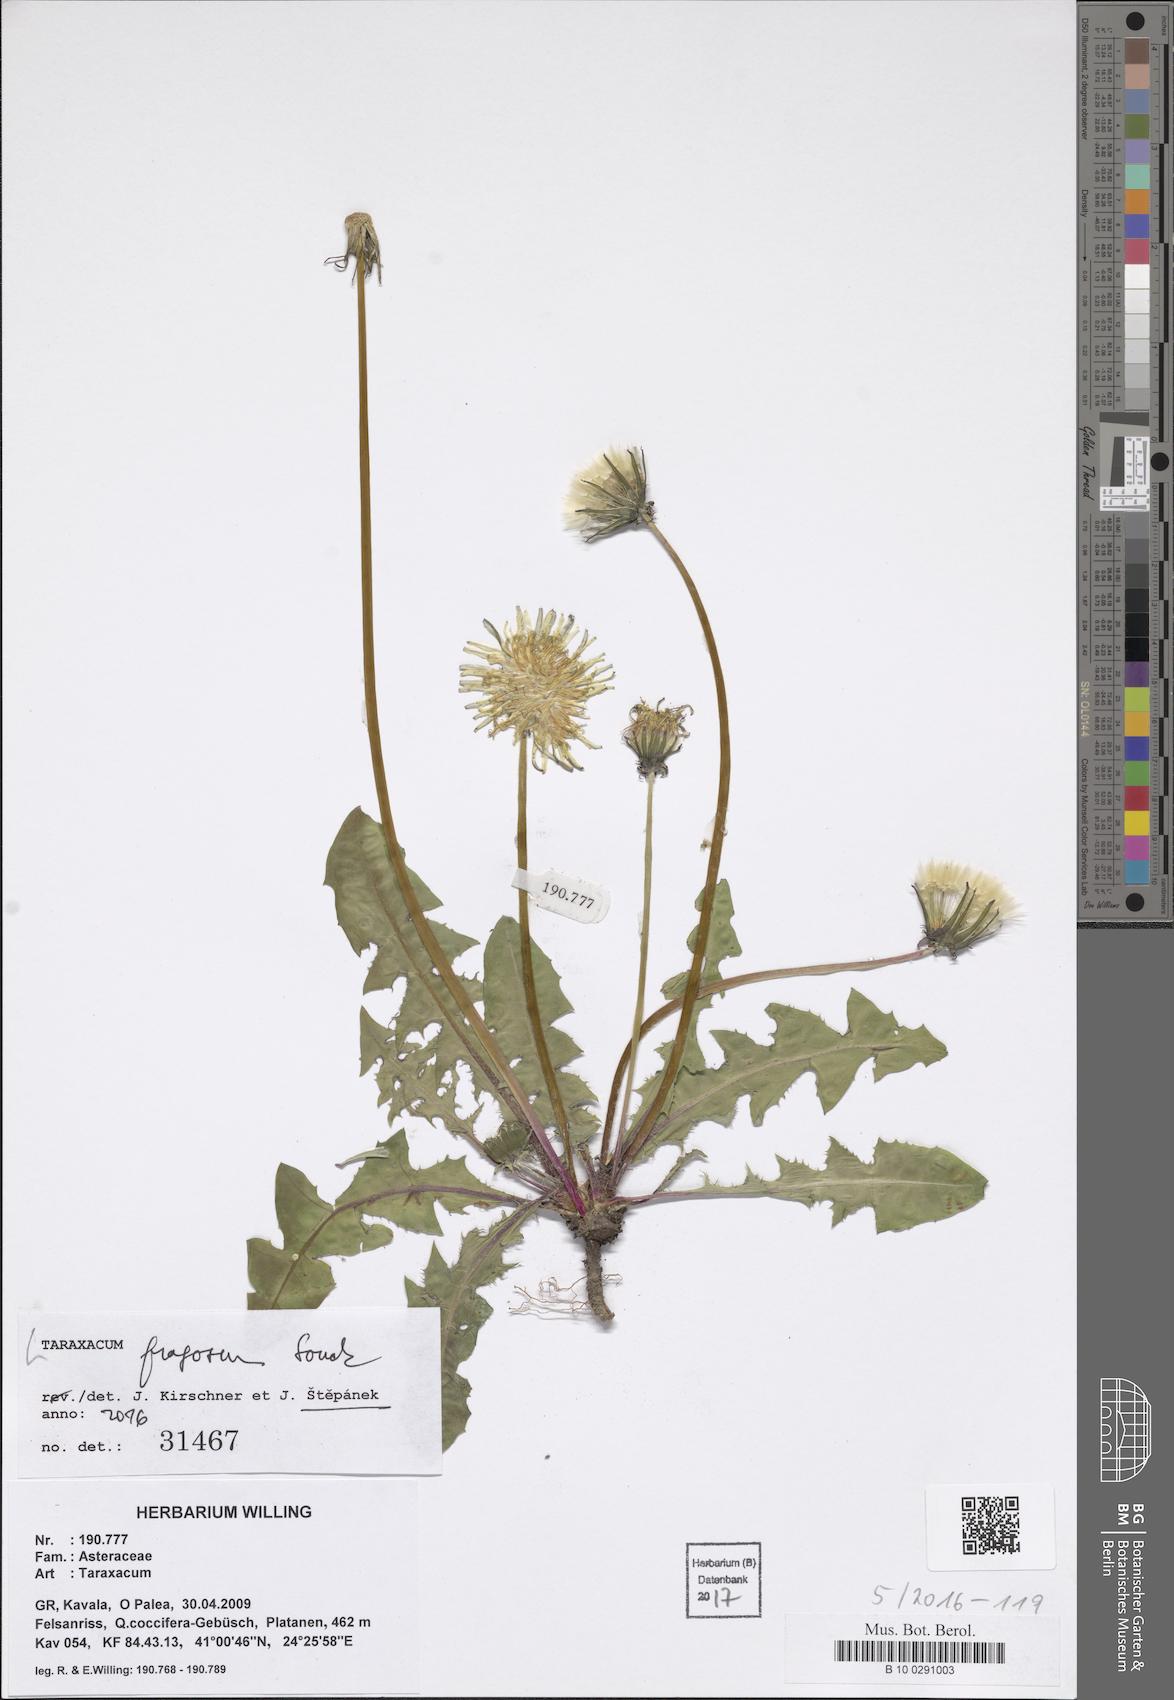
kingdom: Plantae
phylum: Tracheophyta
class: Magnoliopsida
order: Asterales
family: Asteraceae
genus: Taraxacum
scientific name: Taraxacum fragosum
